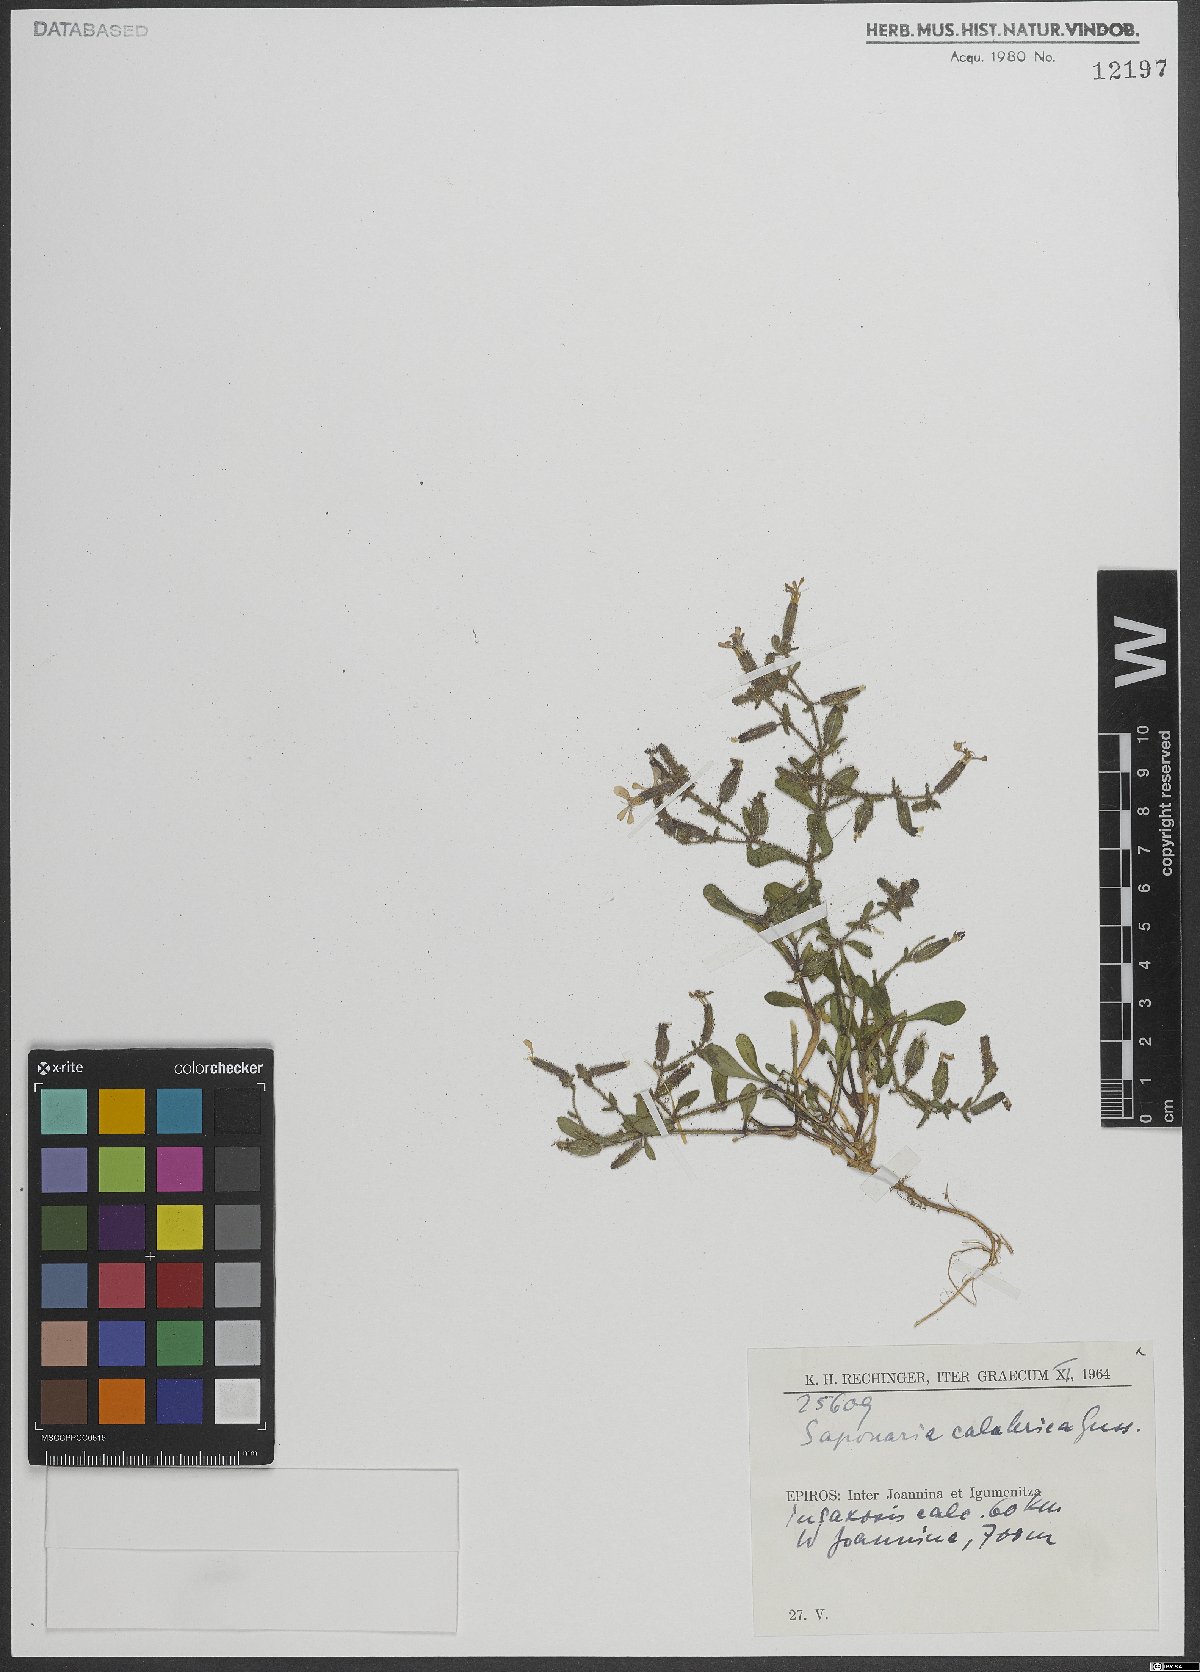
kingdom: Plantae
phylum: Tracheophyta
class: Magnoliopsida
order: Caryophyllales
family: Caryophyllaceae
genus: Saponaria
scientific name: Saponaria calabrica
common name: Adriatic soapwort
